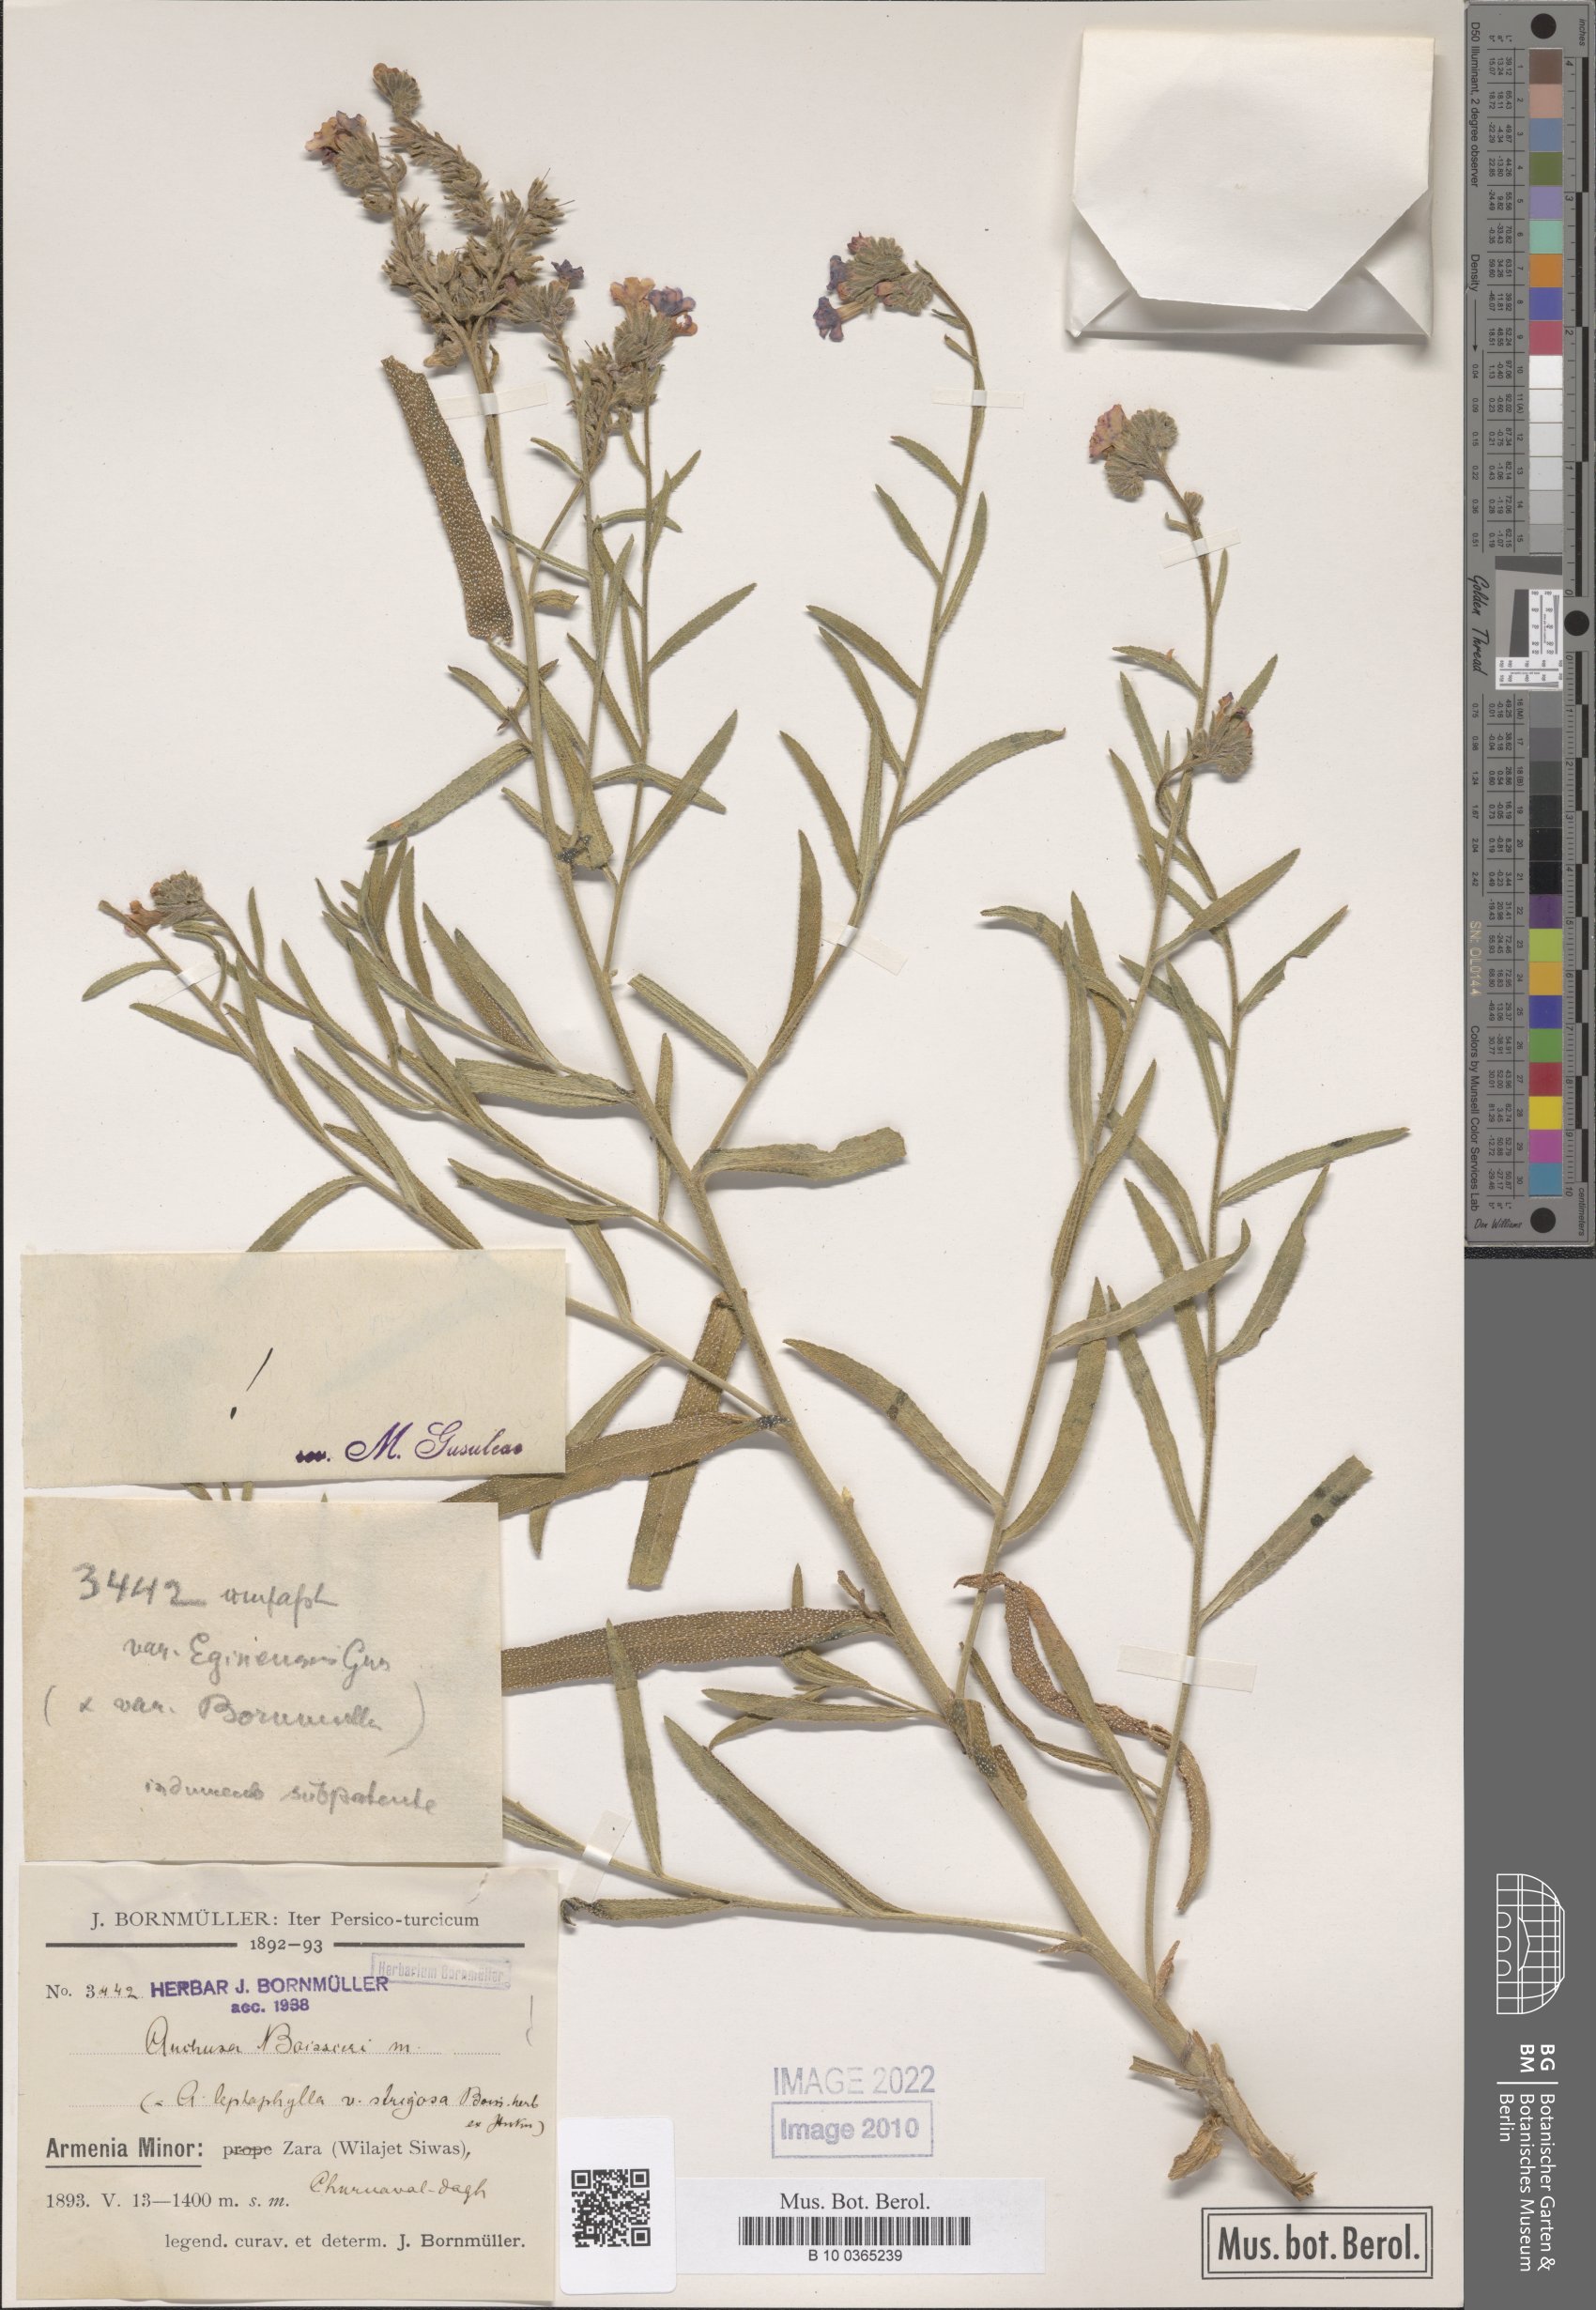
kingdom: Plantae
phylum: Tracheophyta
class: Magnoliopsida
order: Boraginales
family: Boraginaceae
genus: Anchusa
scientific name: Anchusa leptophylla
